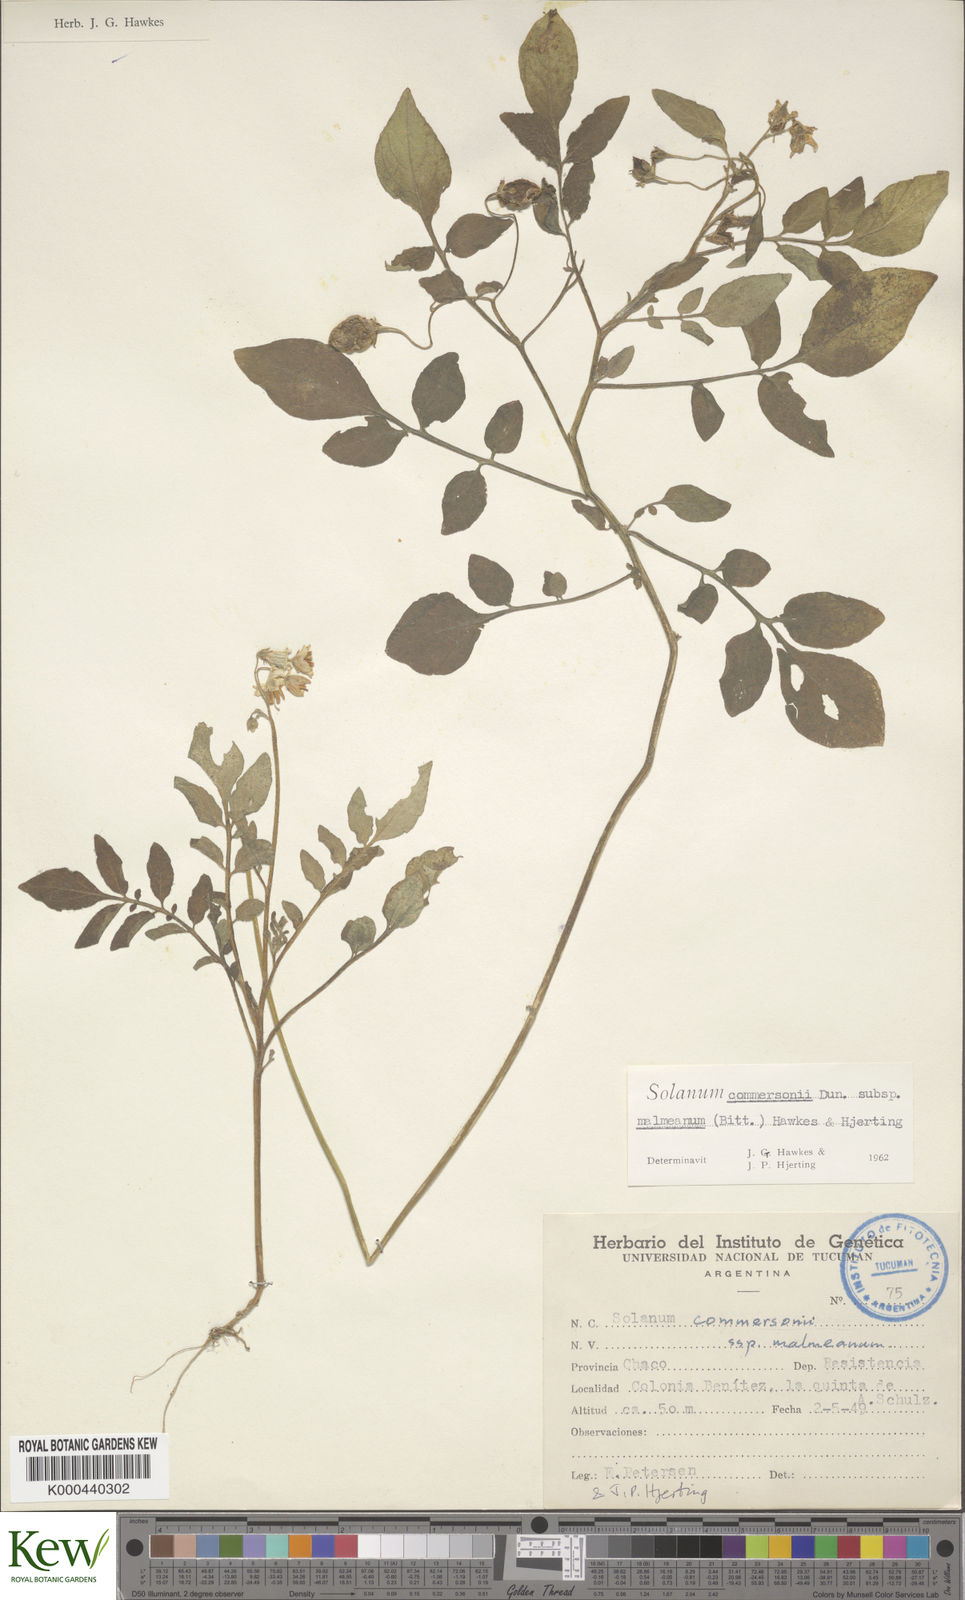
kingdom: Plantae
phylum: Tracheophyta
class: Magnoliopsida
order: Solanales
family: Solanaceae
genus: Solanum
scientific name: Solanum malmeanum
